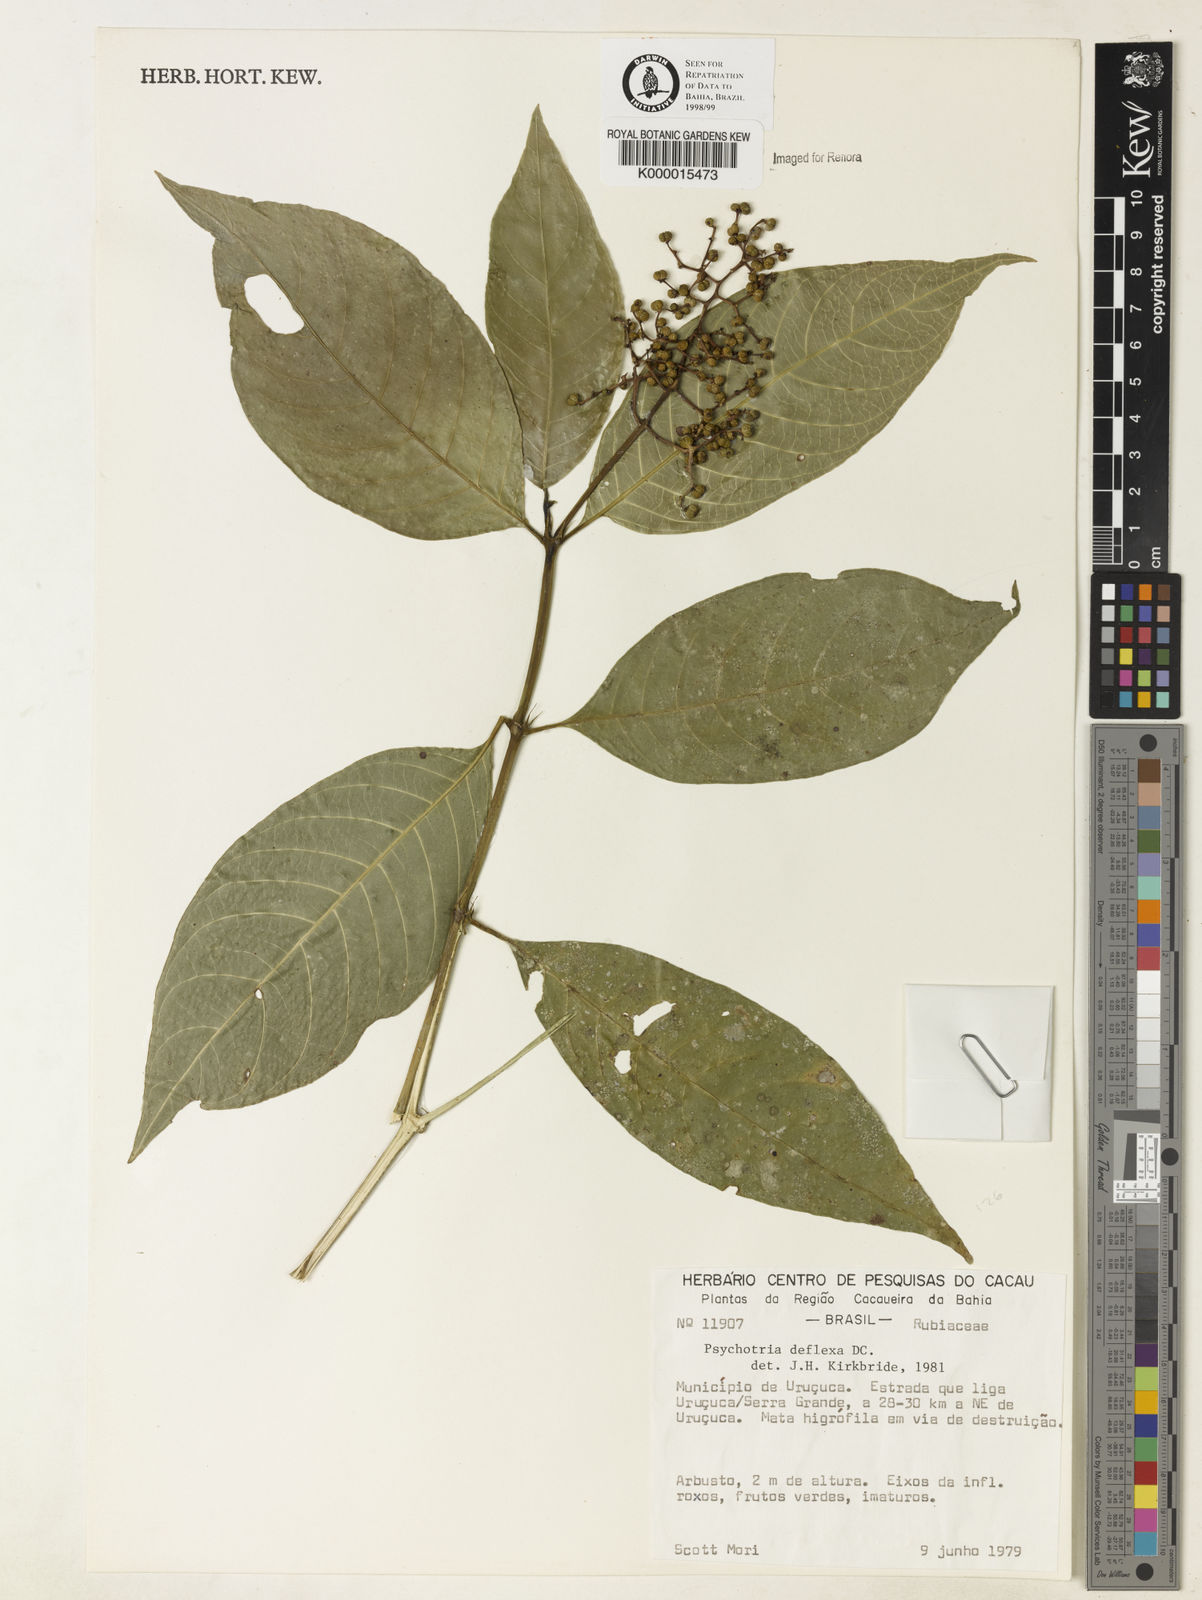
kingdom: Plantae
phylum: Tracheophyta
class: Magnoliopsida
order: Gentianales
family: Rubiaceae
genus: Palicourea
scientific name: Palicourea deflexa
